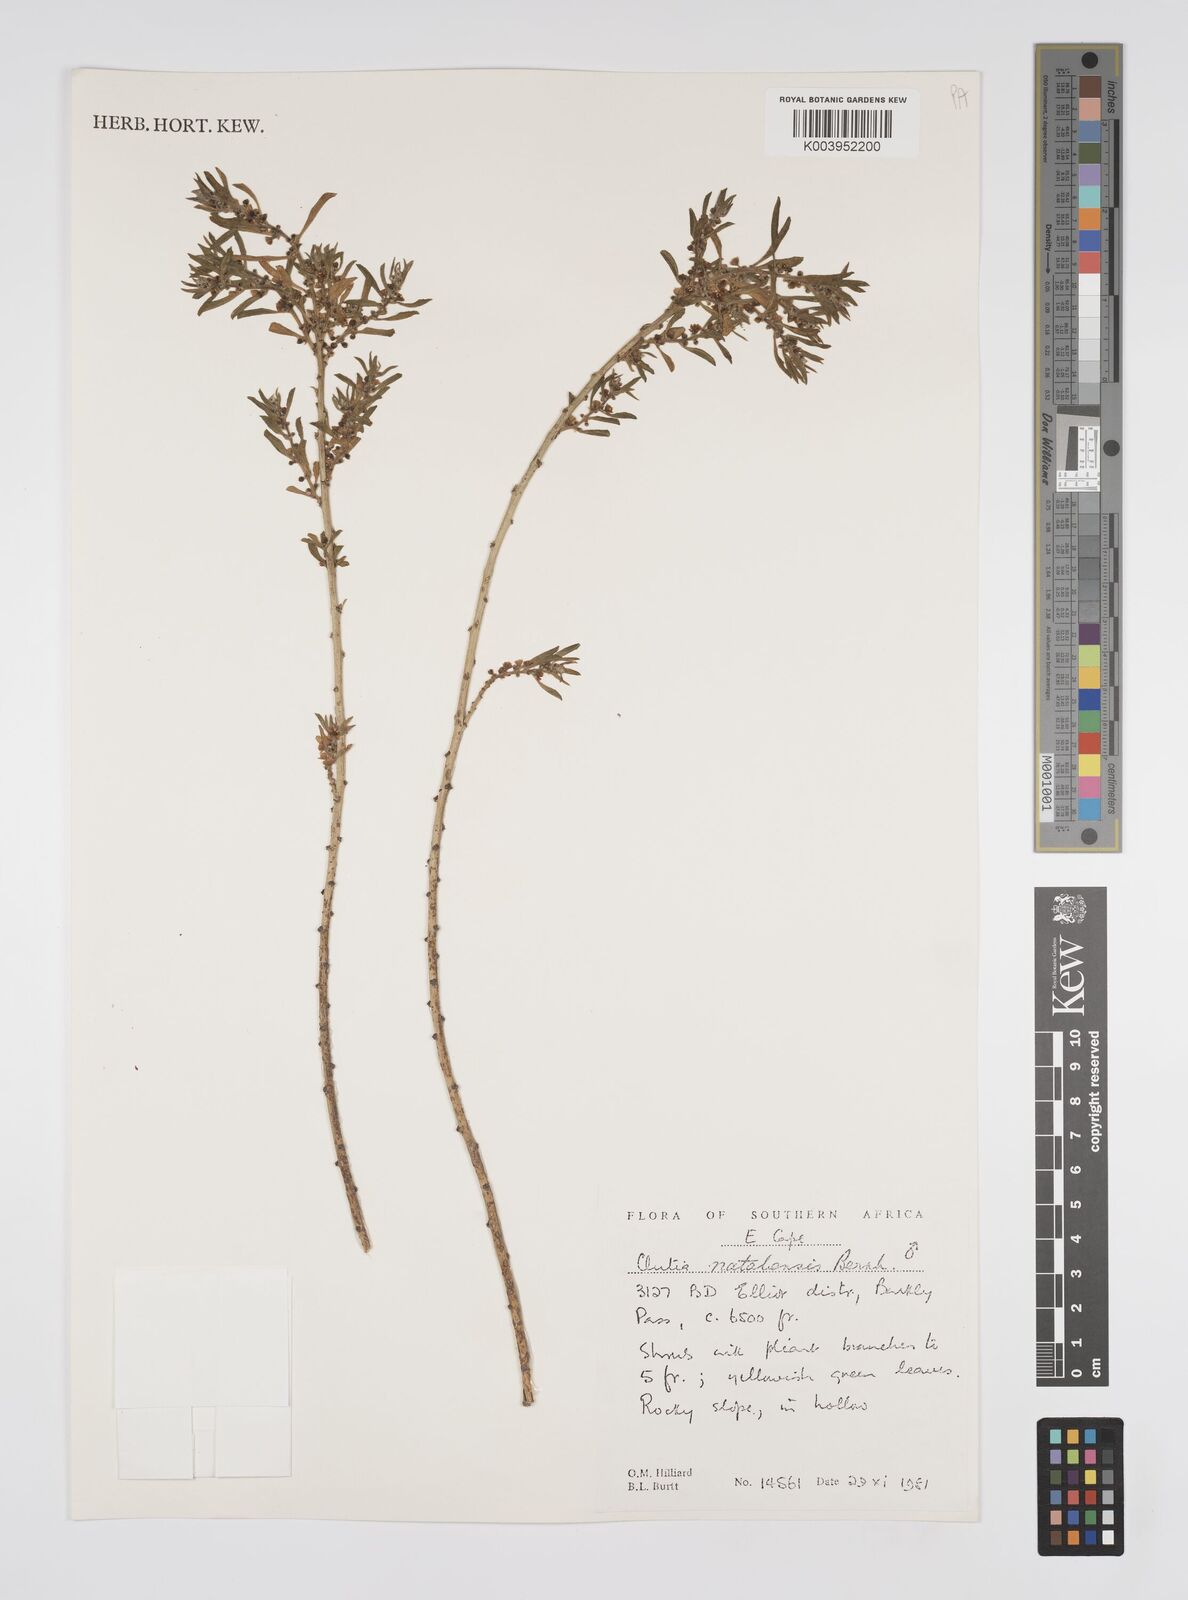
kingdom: Plantae
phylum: Tracheophyta
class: Magnoliopsida
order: Malpighiales
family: Peraceae
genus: Clutia
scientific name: Clutia natalensis
